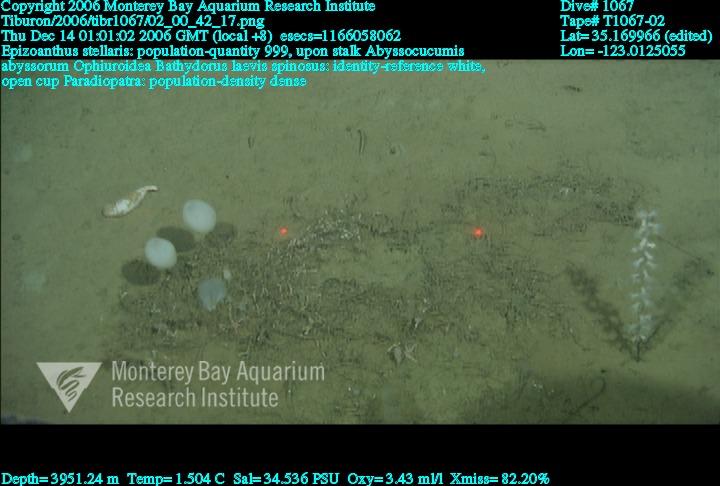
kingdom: Animalia
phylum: Porifera
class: Hexactinellida
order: Lyssacinosida
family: Rossellidae
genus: Bathydorus
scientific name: Bathydorus spinosus
